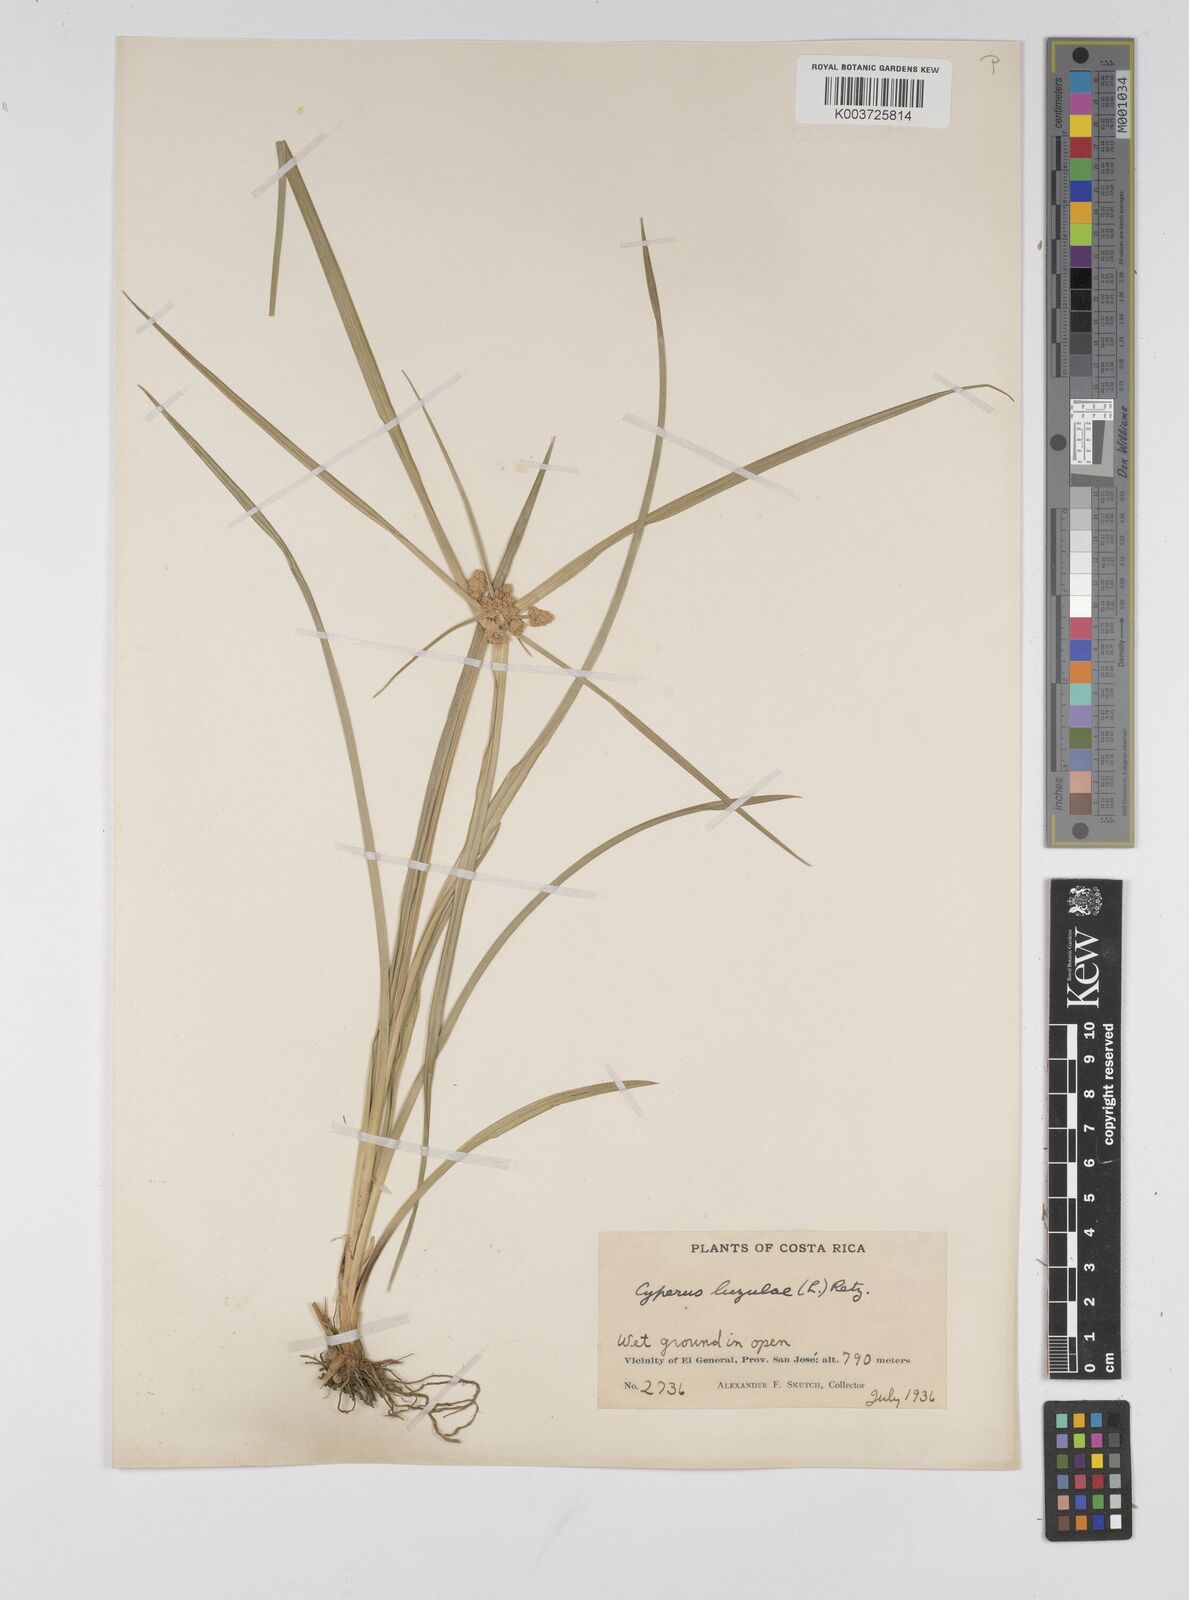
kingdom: Plantae
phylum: Tracheophyta
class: Liliopsida
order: Poales
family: Cyperaceae
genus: Cyperus
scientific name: Cyperus luzulae
